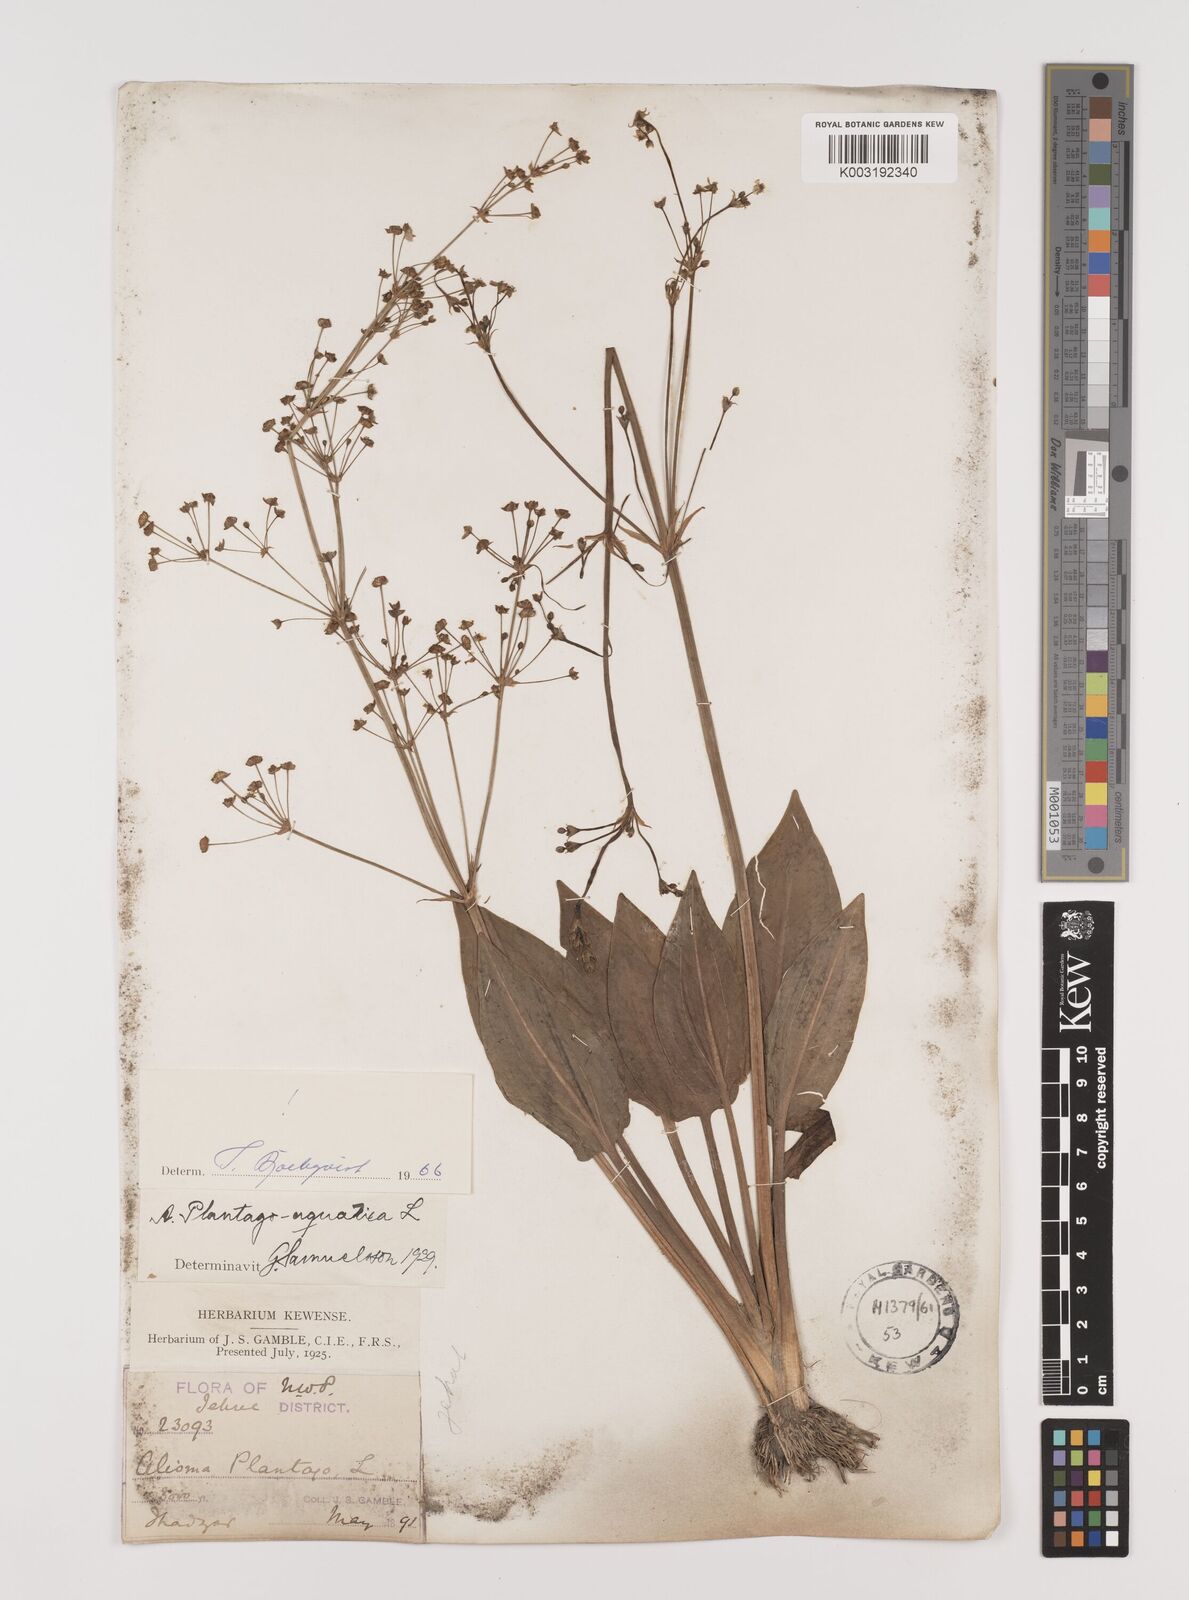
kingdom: Plantae
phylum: Tracheophyta
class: Liliopsida
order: Alismatales
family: Alismataceae
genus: Alisma
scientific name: Alisma plantago-aquatica
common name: Water-plantain
